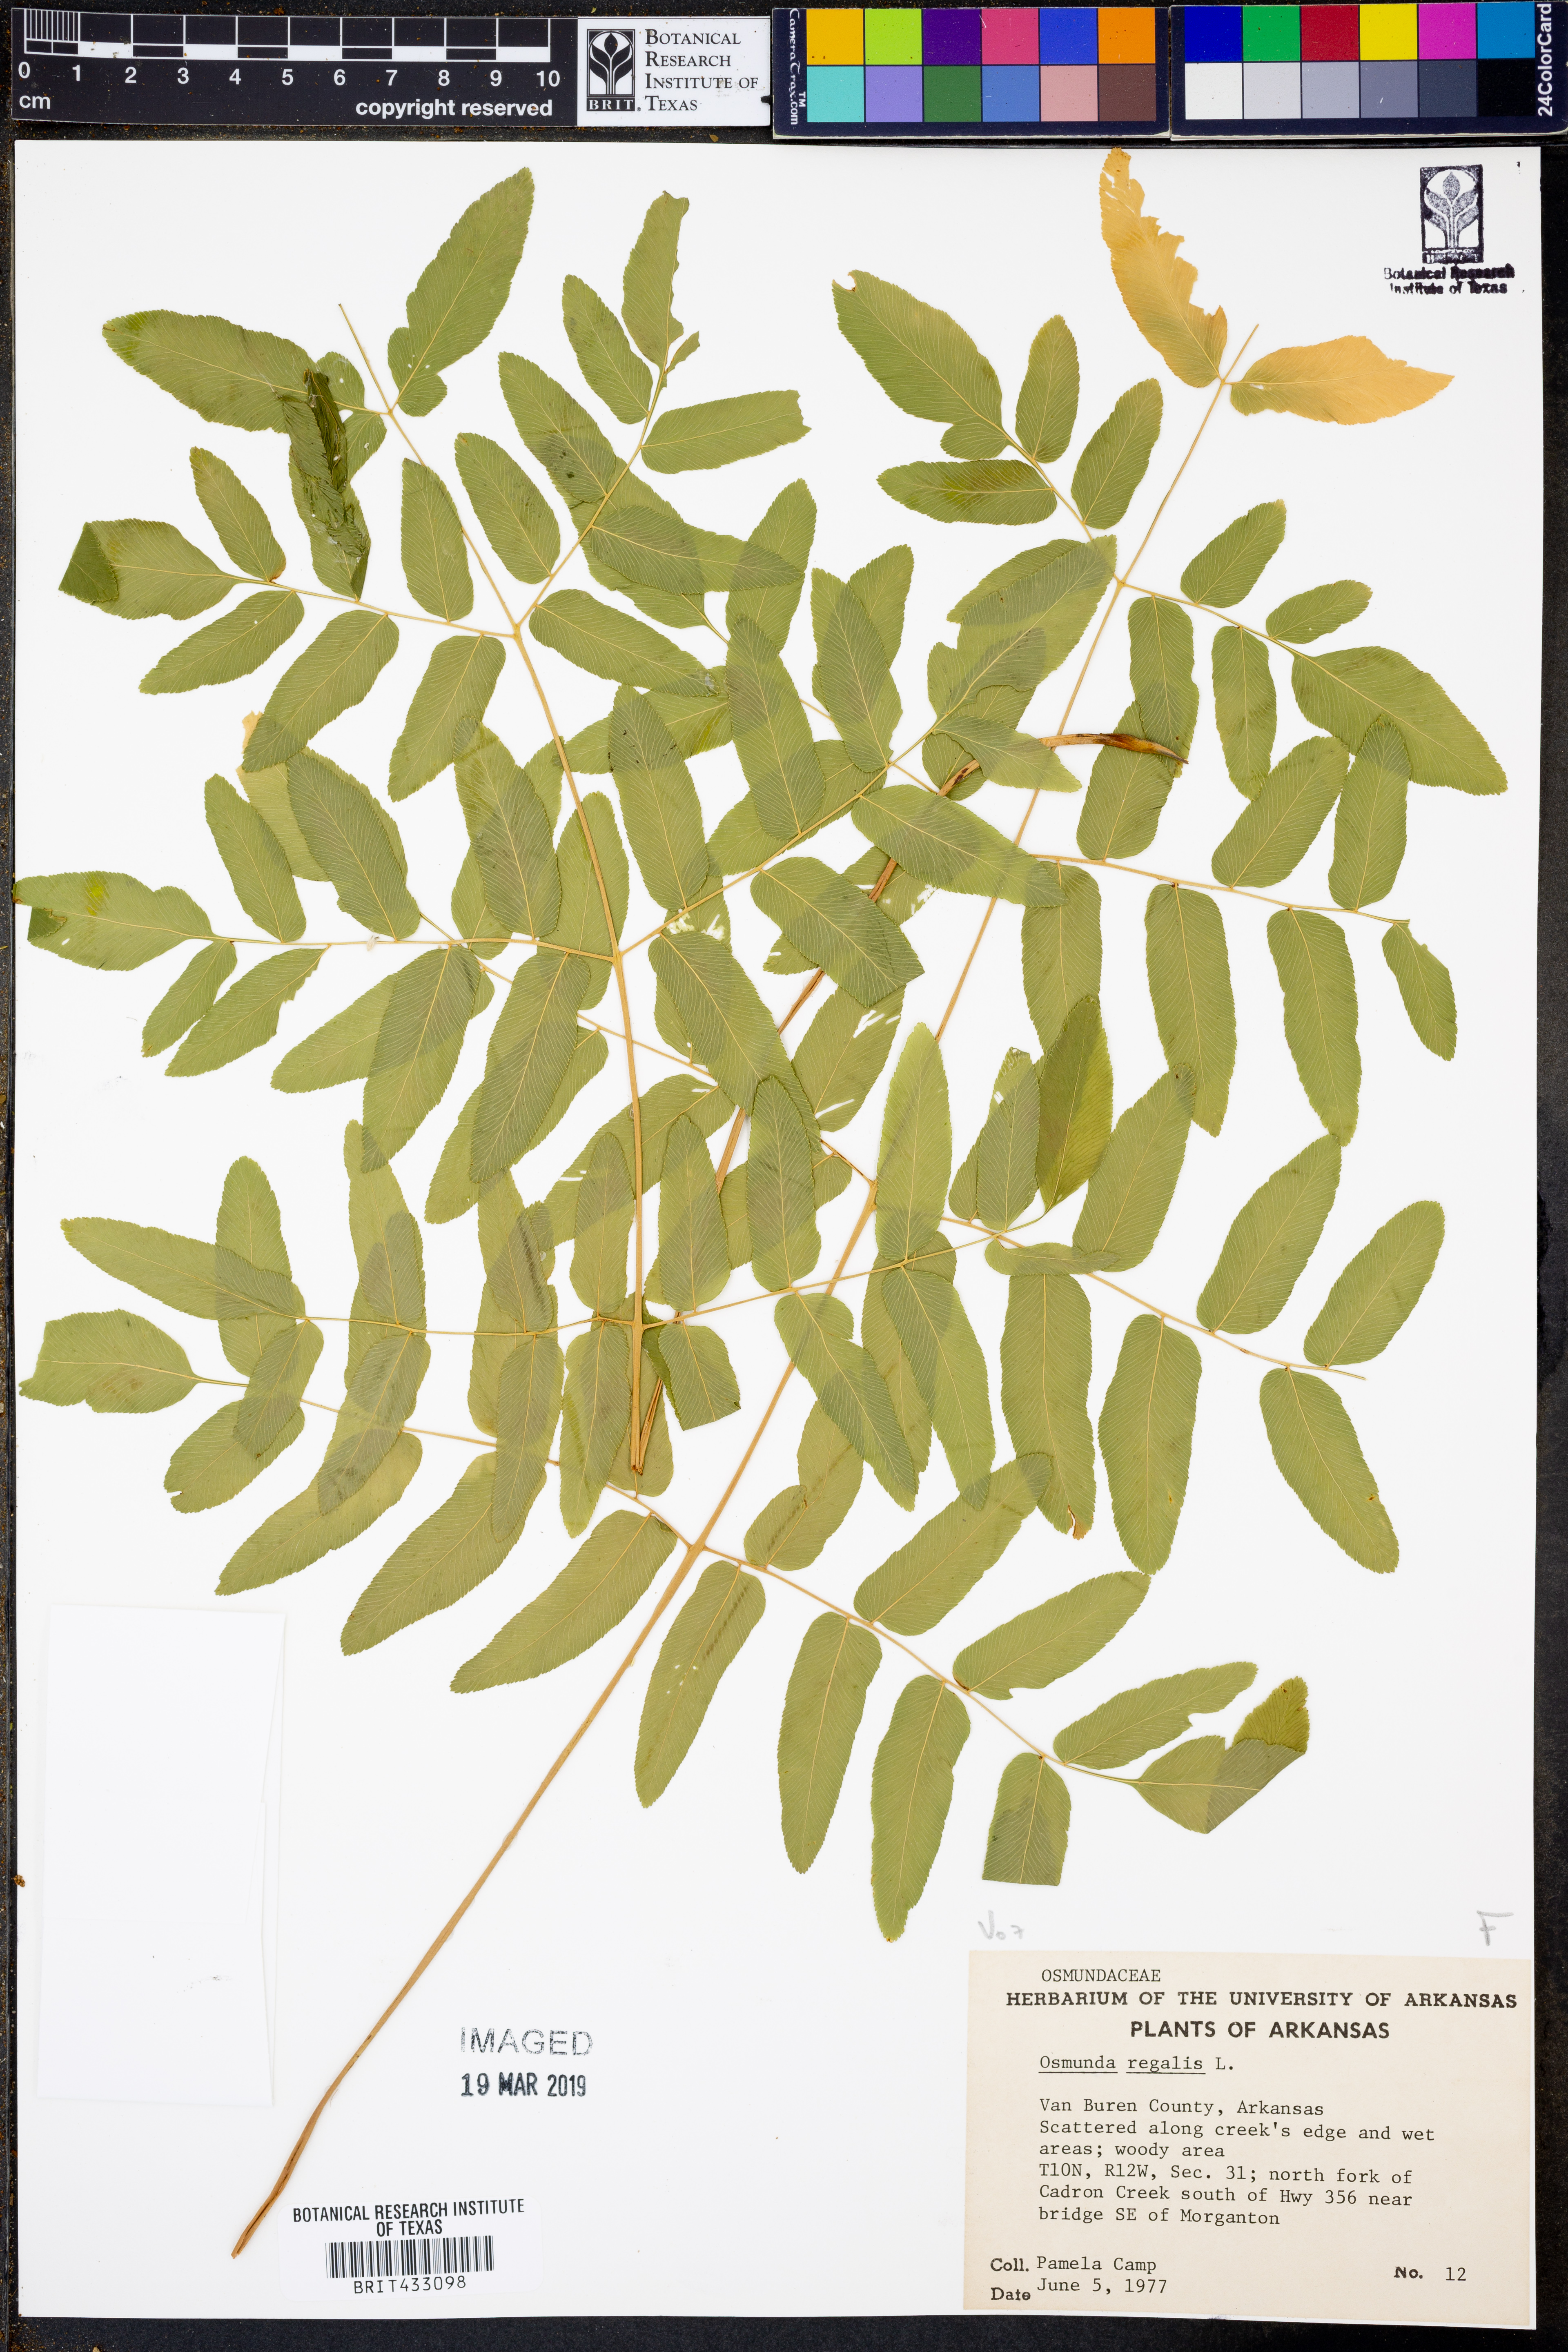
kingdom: Plantae
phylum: Tracheophyta
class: Polypodiopsida
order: Osmundales
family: Osmundaceae
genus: Osmunda
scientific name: Osmunda regalis
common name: Royal fern
